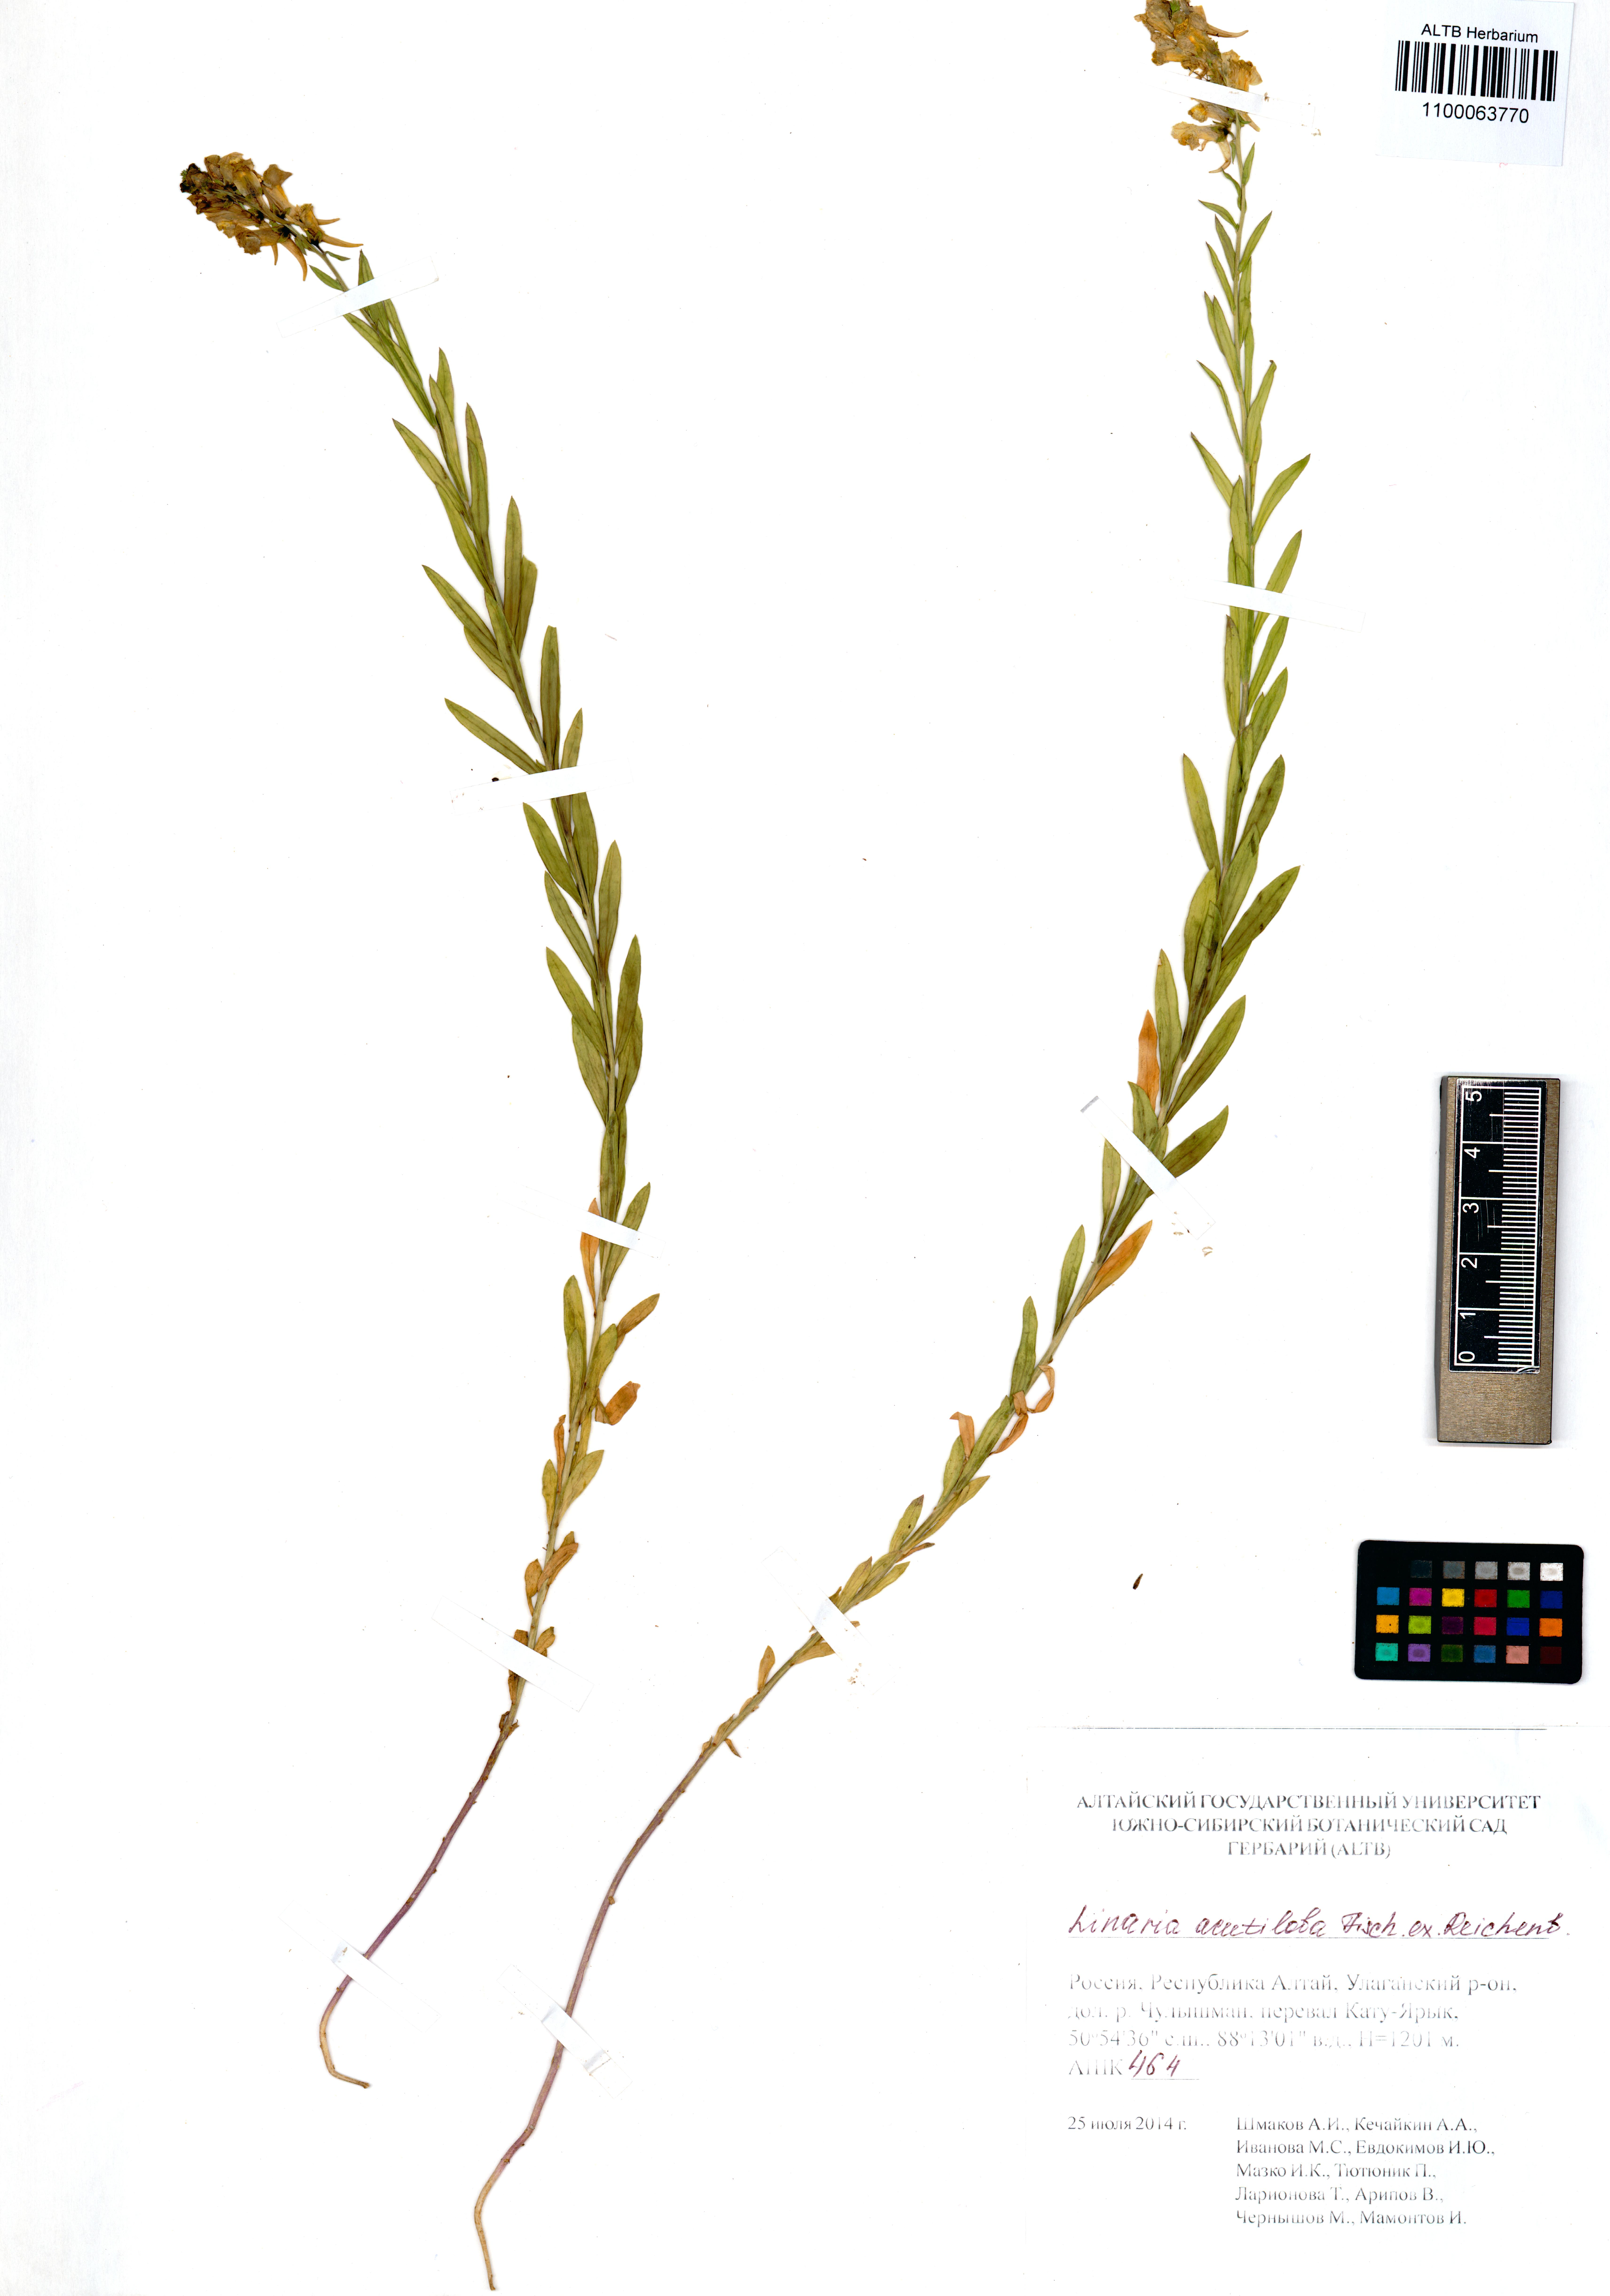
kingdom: Plantae
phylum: Tracheophyta
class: Magnoliopsida
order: Lamiales
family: Plantaginaceae
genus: Linaria
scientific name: Linaria acutiloba
